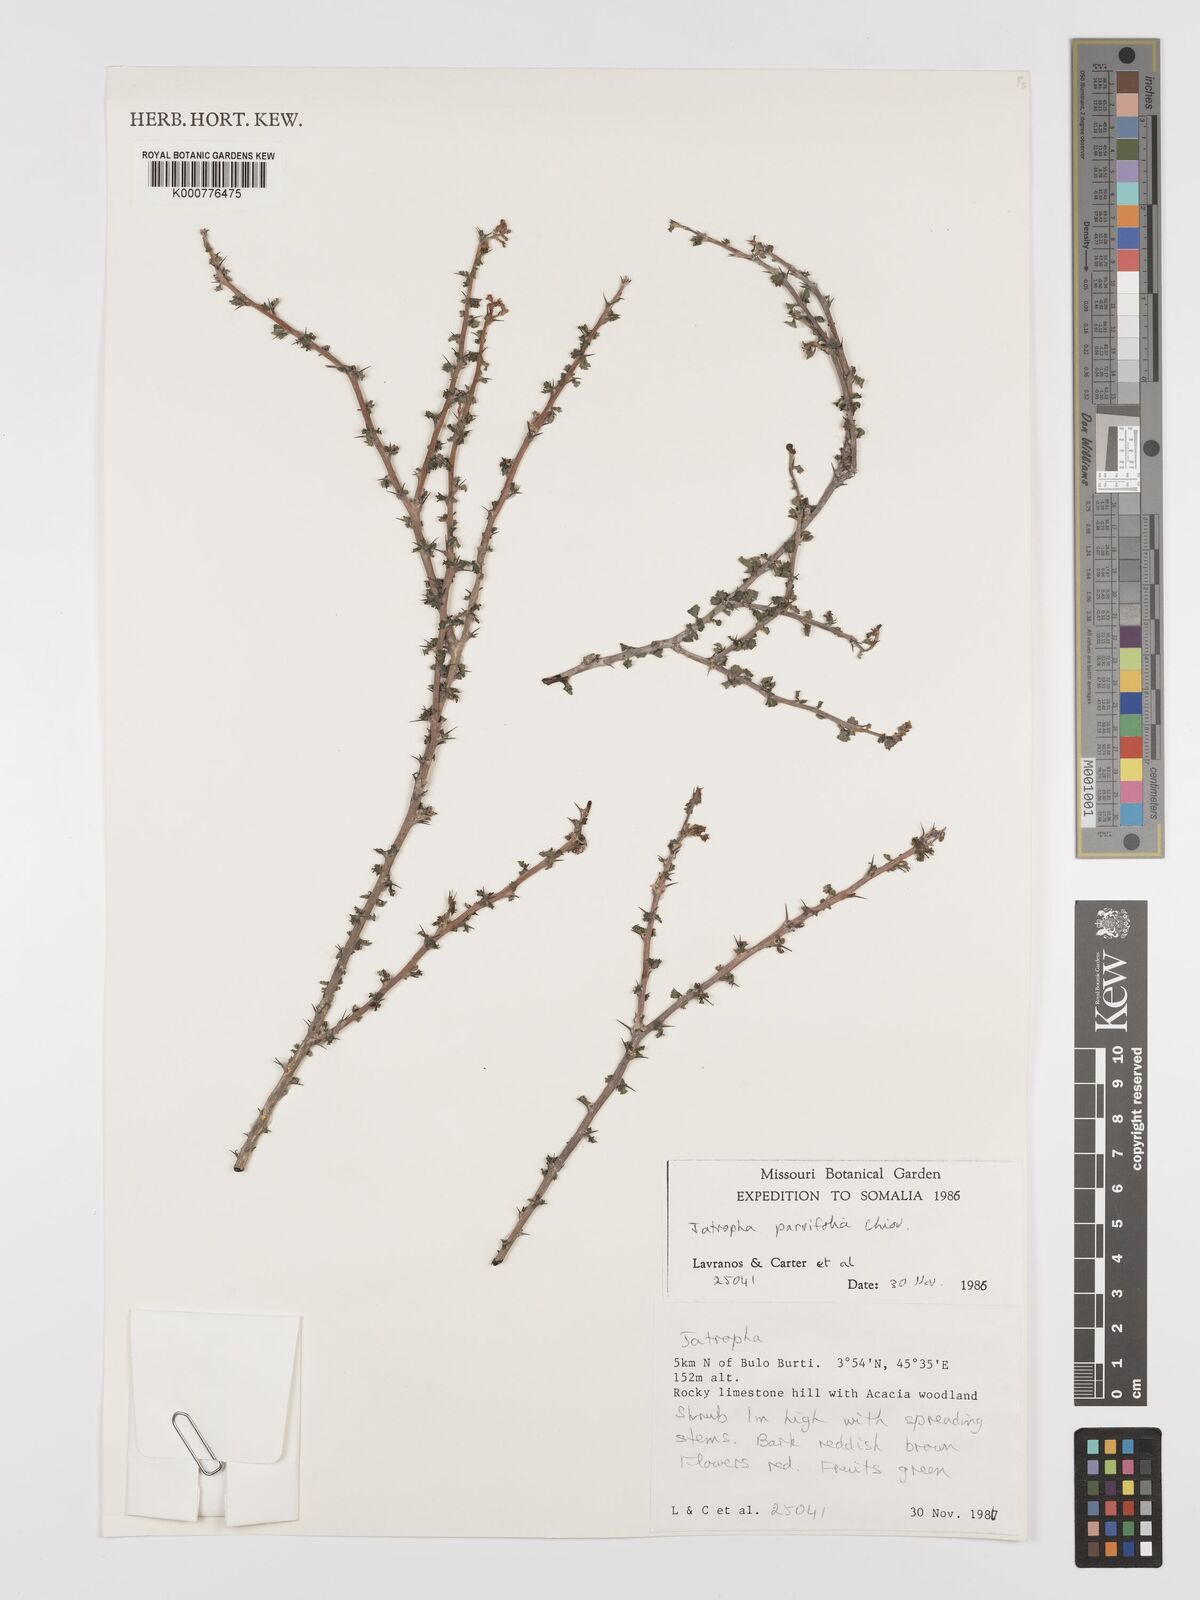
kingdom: Plantae
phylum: Tracheophyta
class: Magnoliopsida
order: Malpighiales
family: Euphorbiaceae
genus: Jatropha
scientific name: Jatropha rivae
